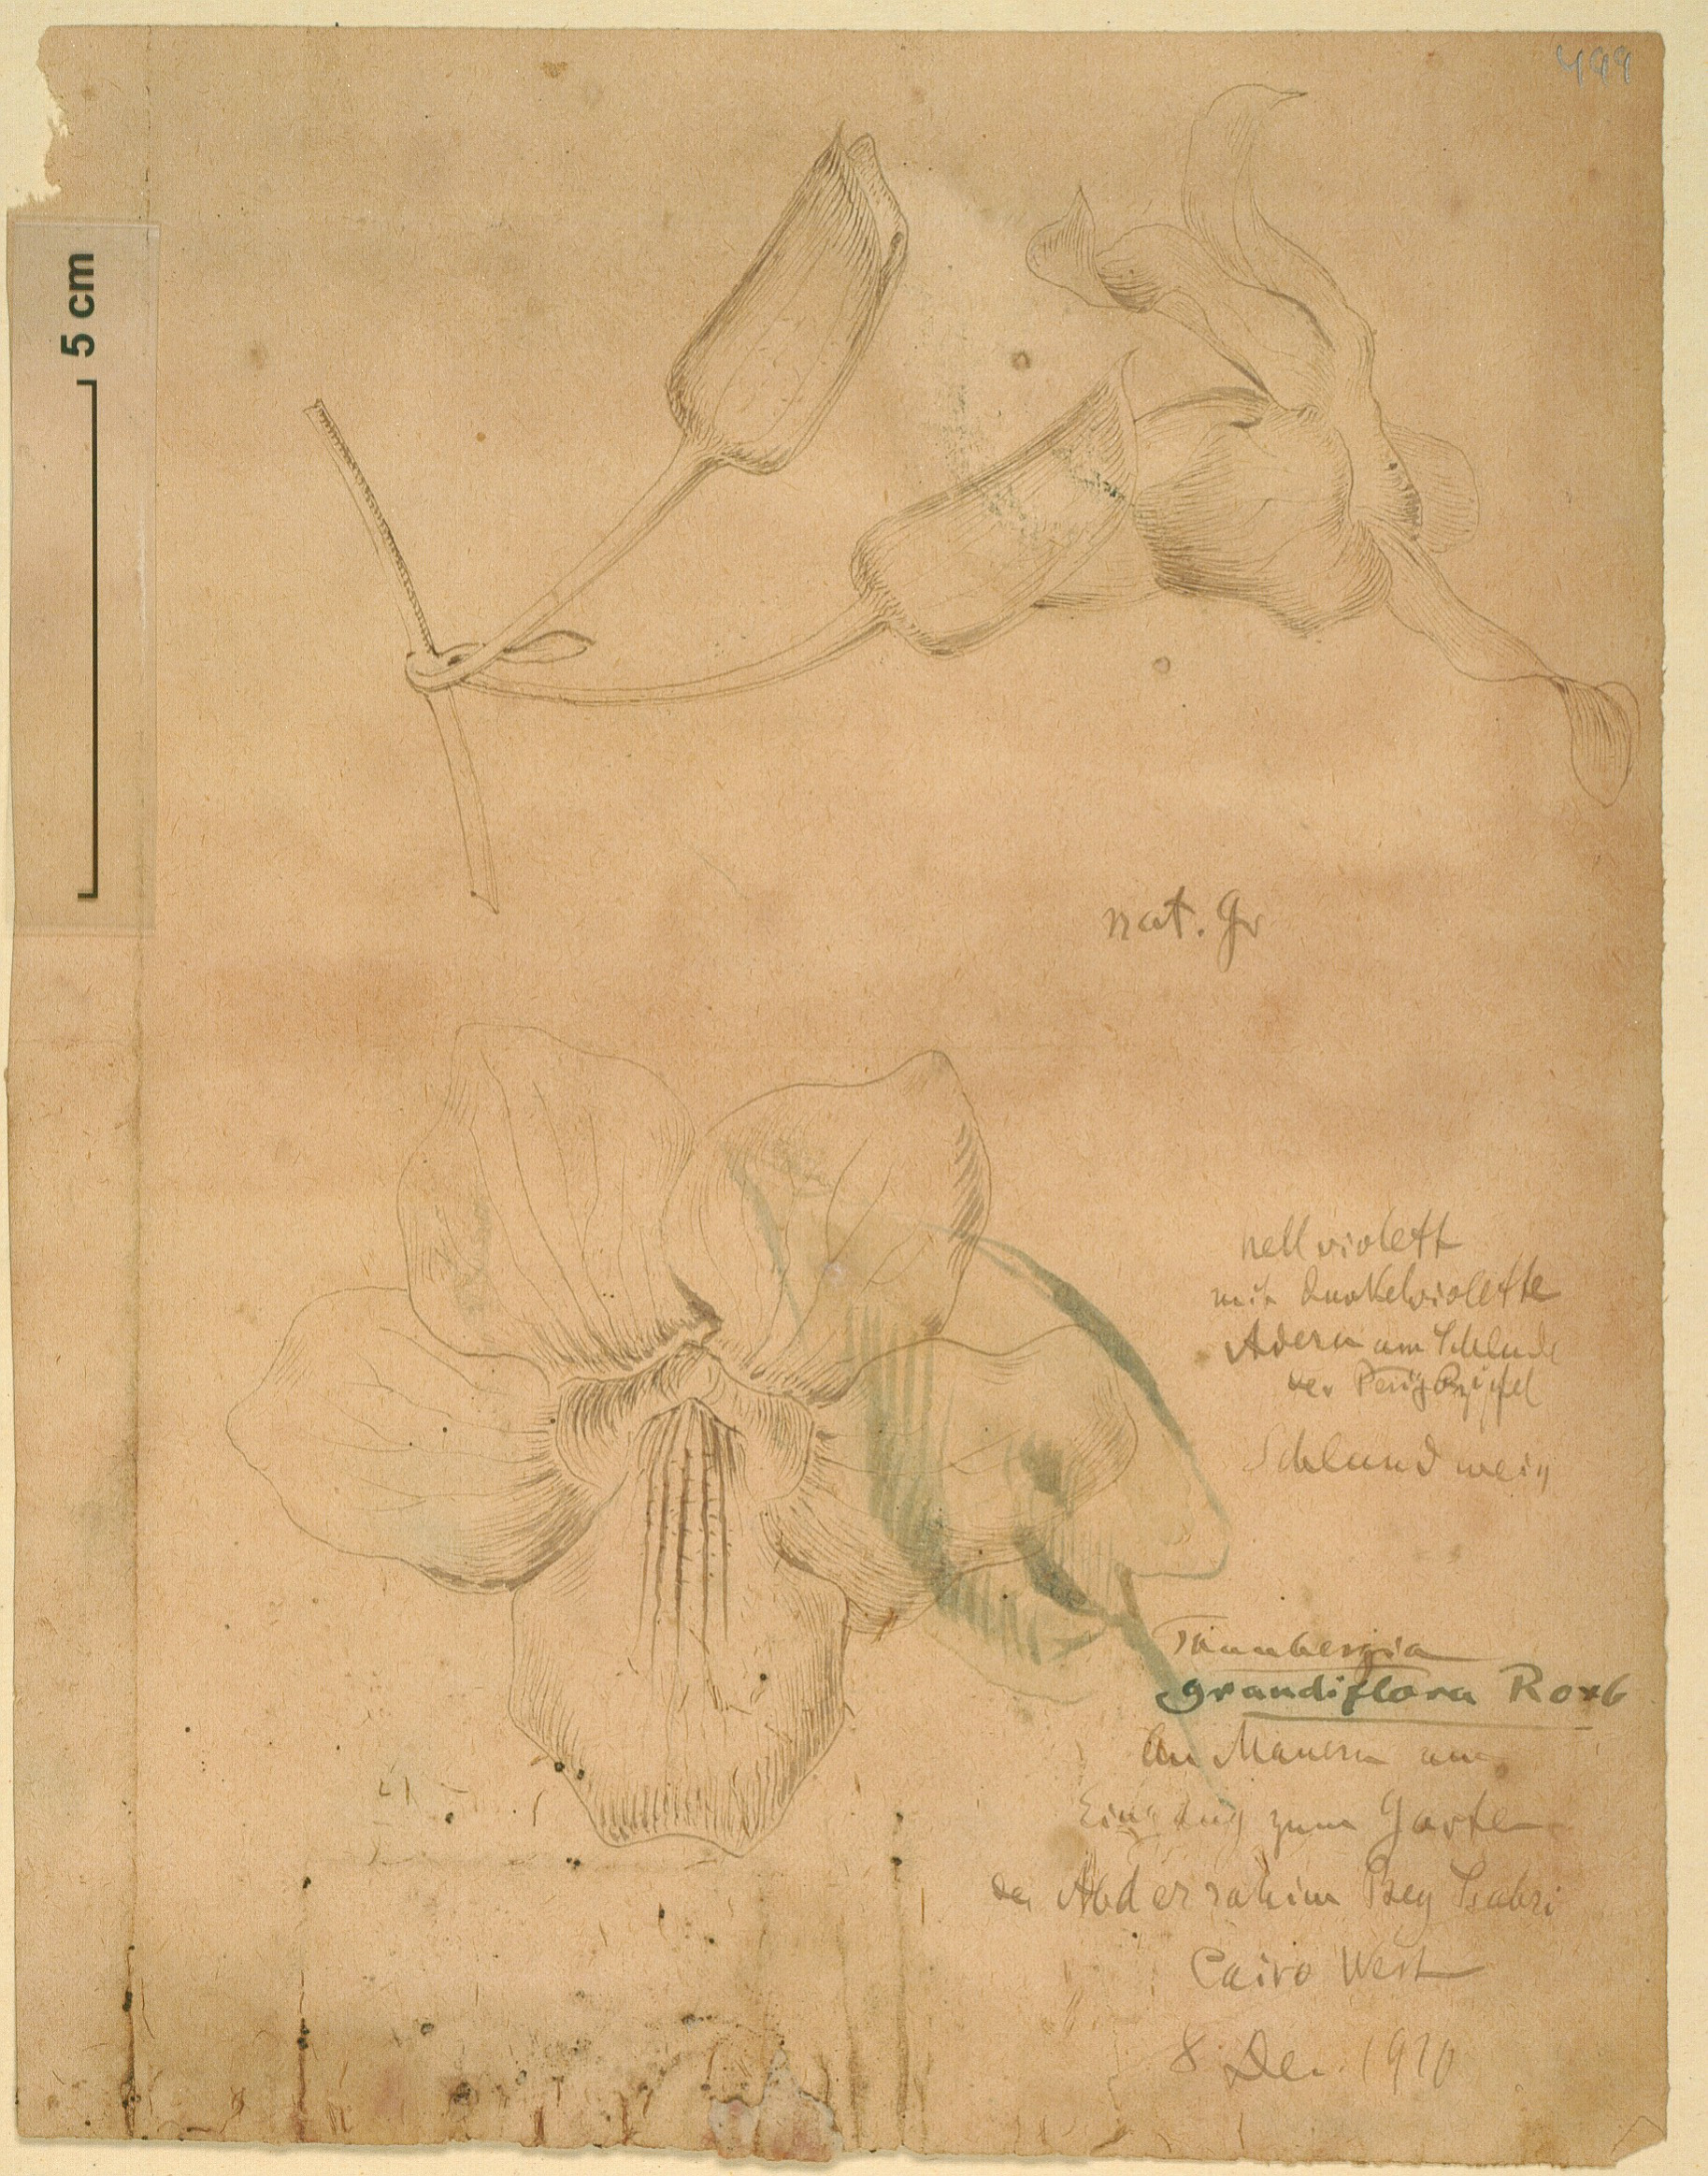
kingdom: Plantae
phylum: Tracheophyta
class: Magnoliopsida
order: Lamiales
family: Acanthaceae
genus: Thunbergia
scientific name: Thunbergia alata
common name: Blackeyed susan vine
